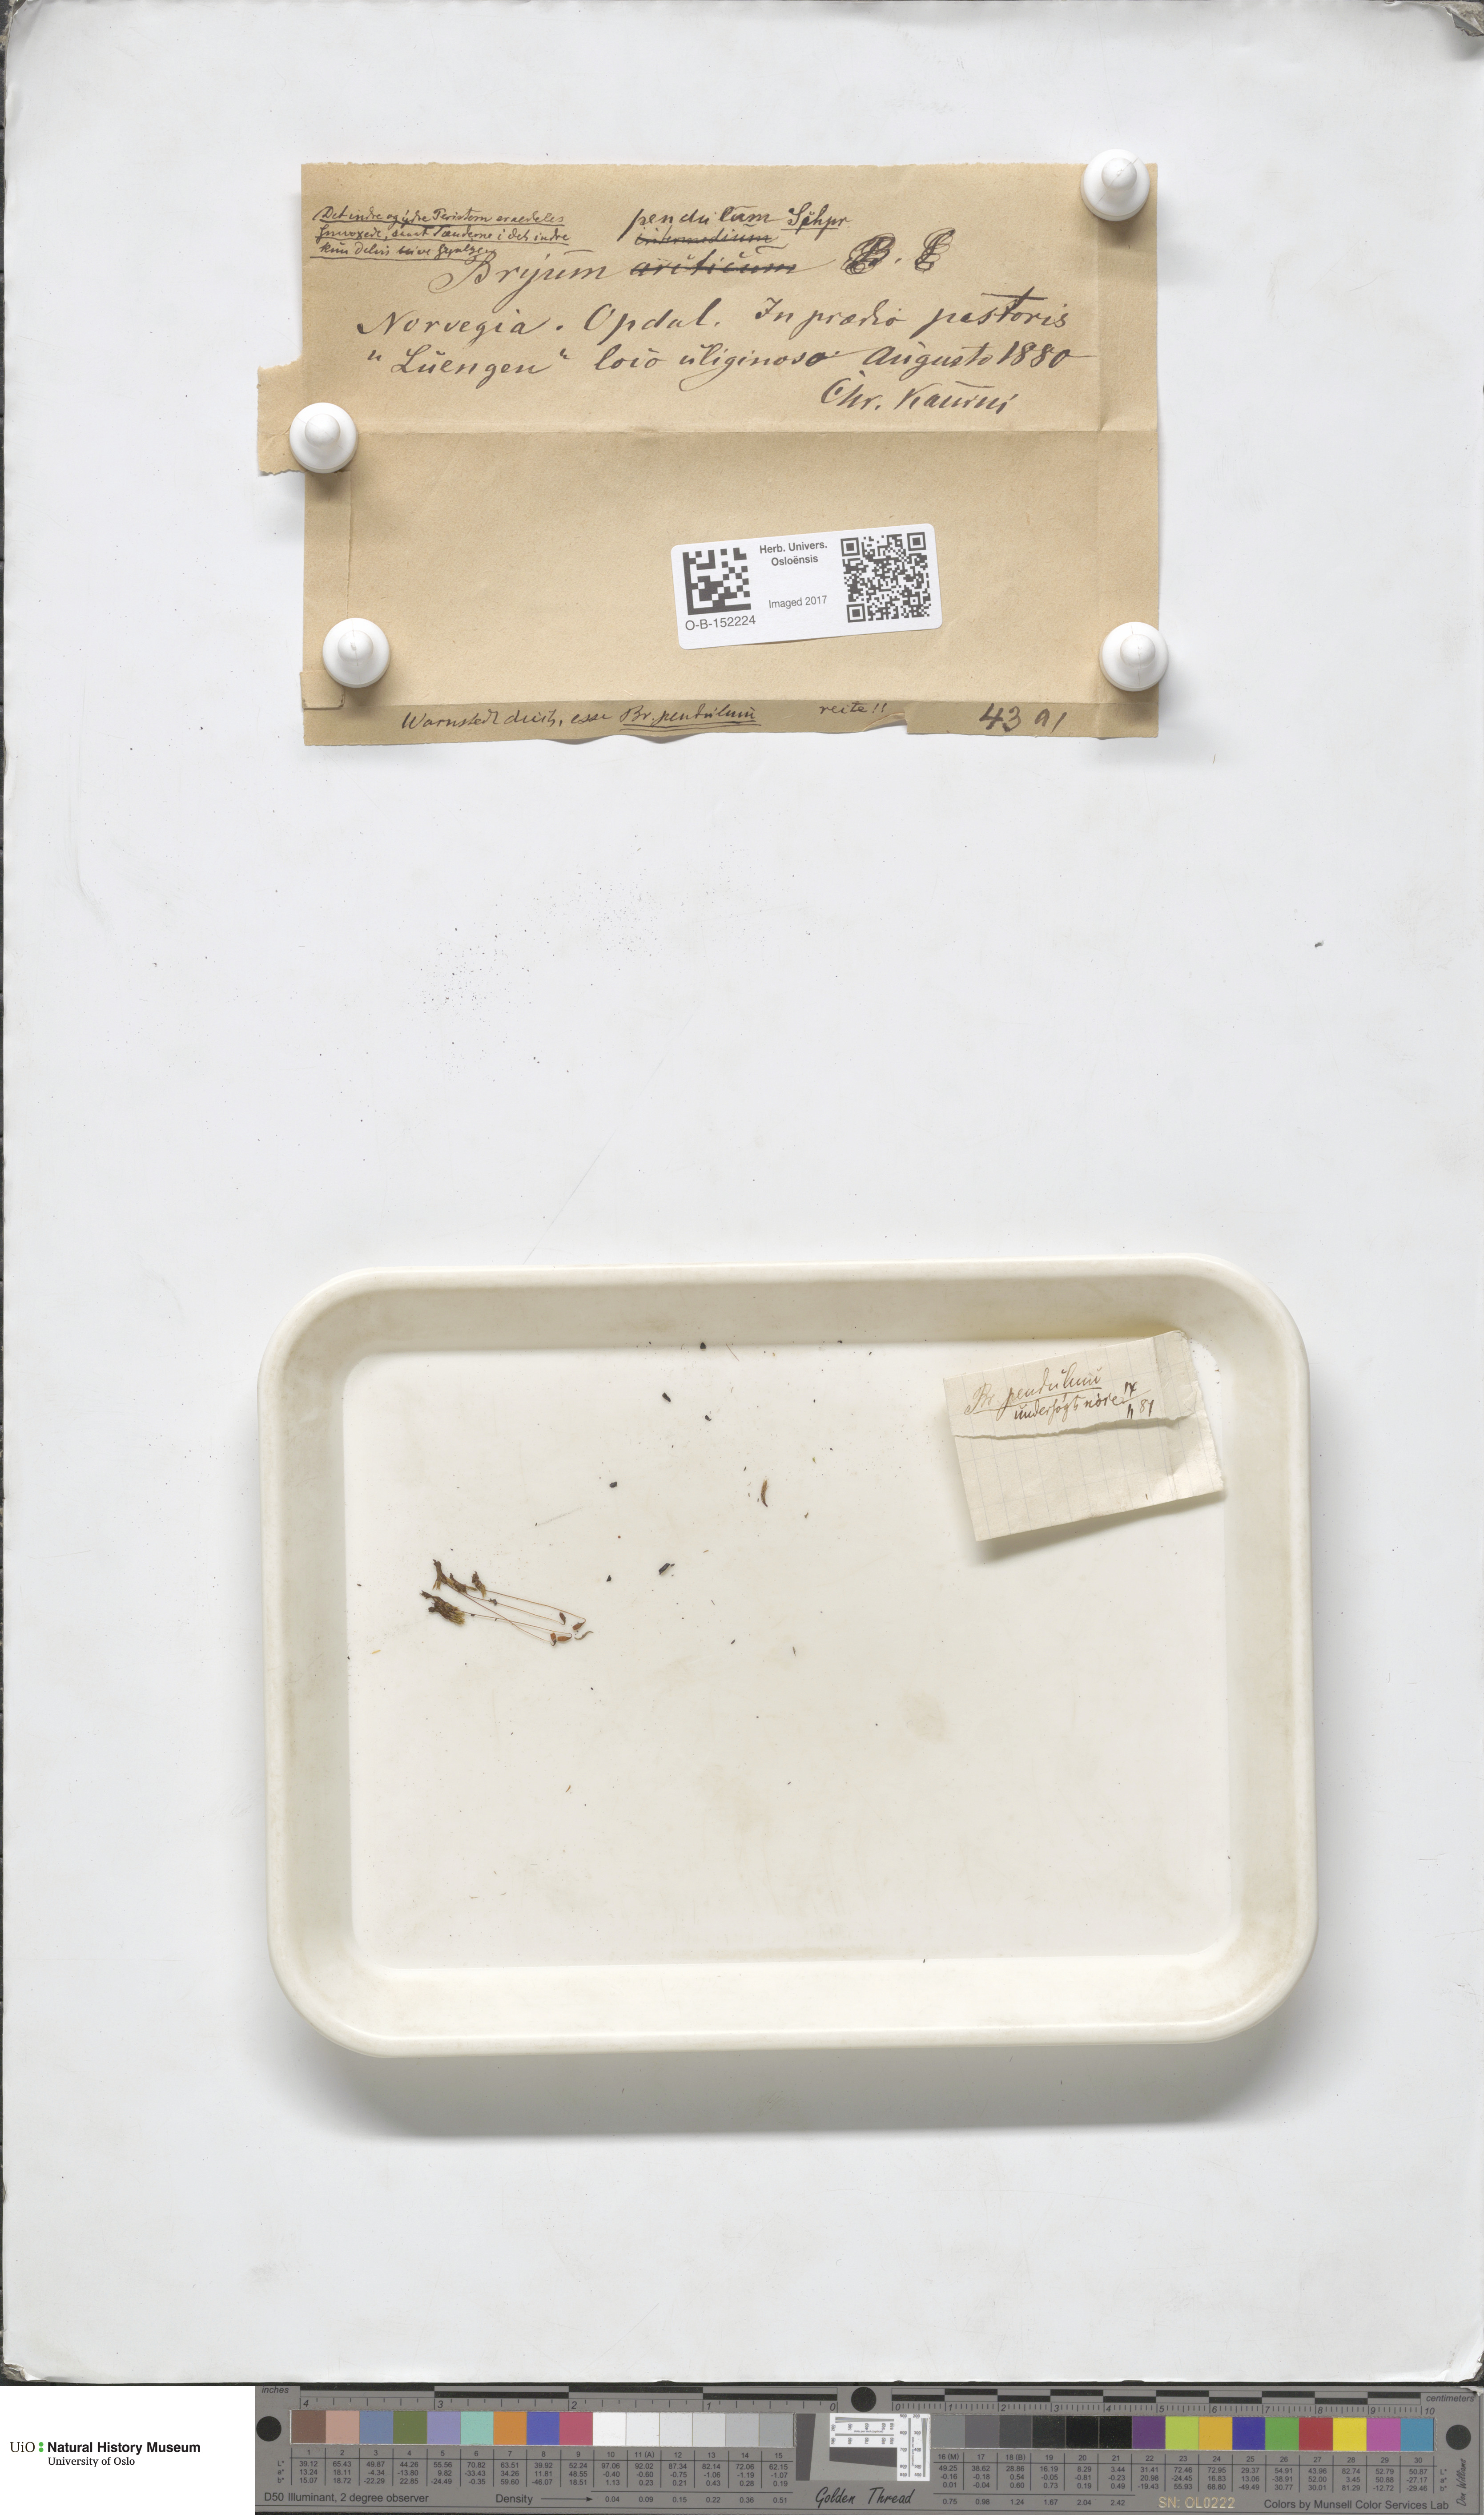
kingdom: Plantae
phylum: Bryophyta
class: Bryopsida
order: Bryales
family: Bryaceae
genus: Ptychostomum
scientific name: Ptychostomum compactum
